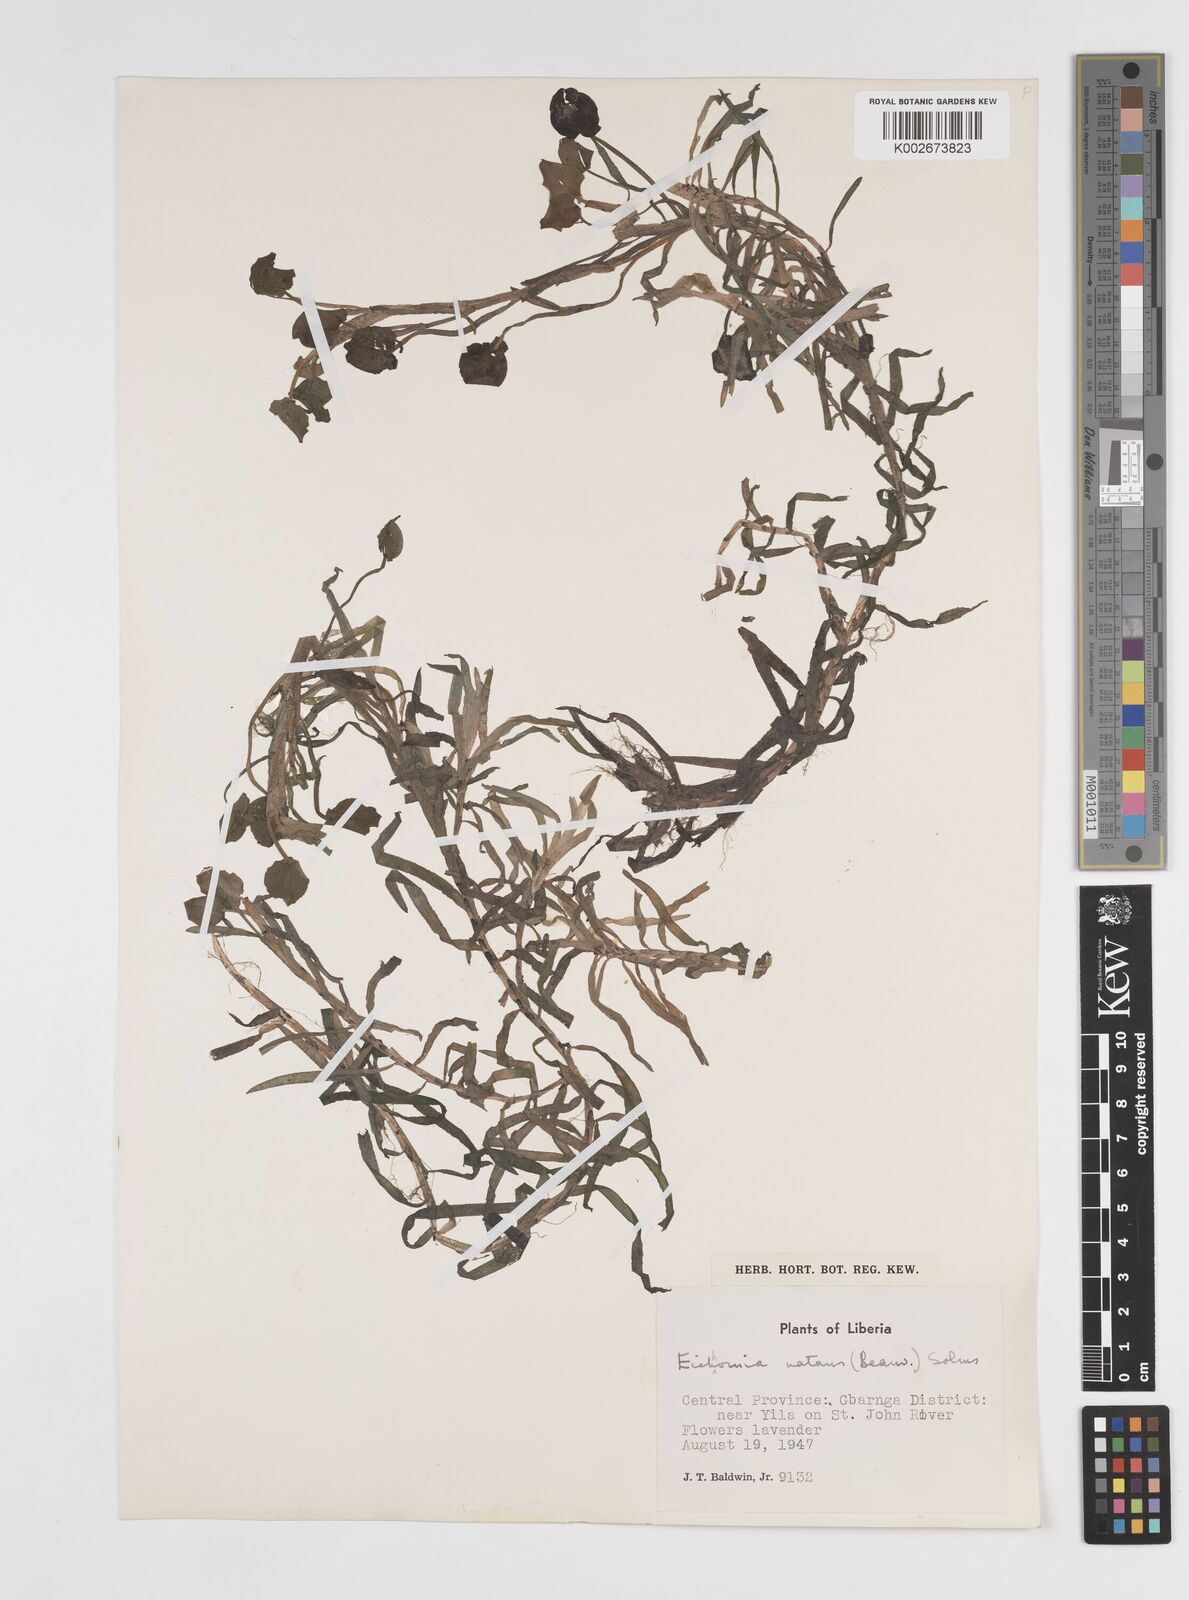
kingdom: Plantae
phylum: Tracheophyta
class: Liliopsida
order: Commelinales
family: Pontederiaceae
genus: Pontederia
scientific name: Pontederia diversifolia
